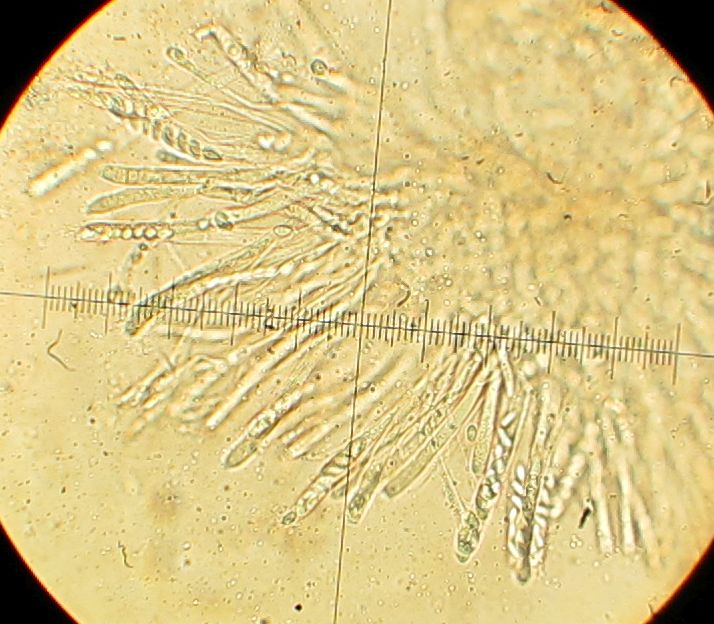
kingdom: Fungi
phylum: Ascomycota
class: Leotiomycetes
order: Helotiales
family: Sclerotiniaceae
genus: Ciboria
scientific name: Ciboria caucus
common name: rakle-knoldskive
